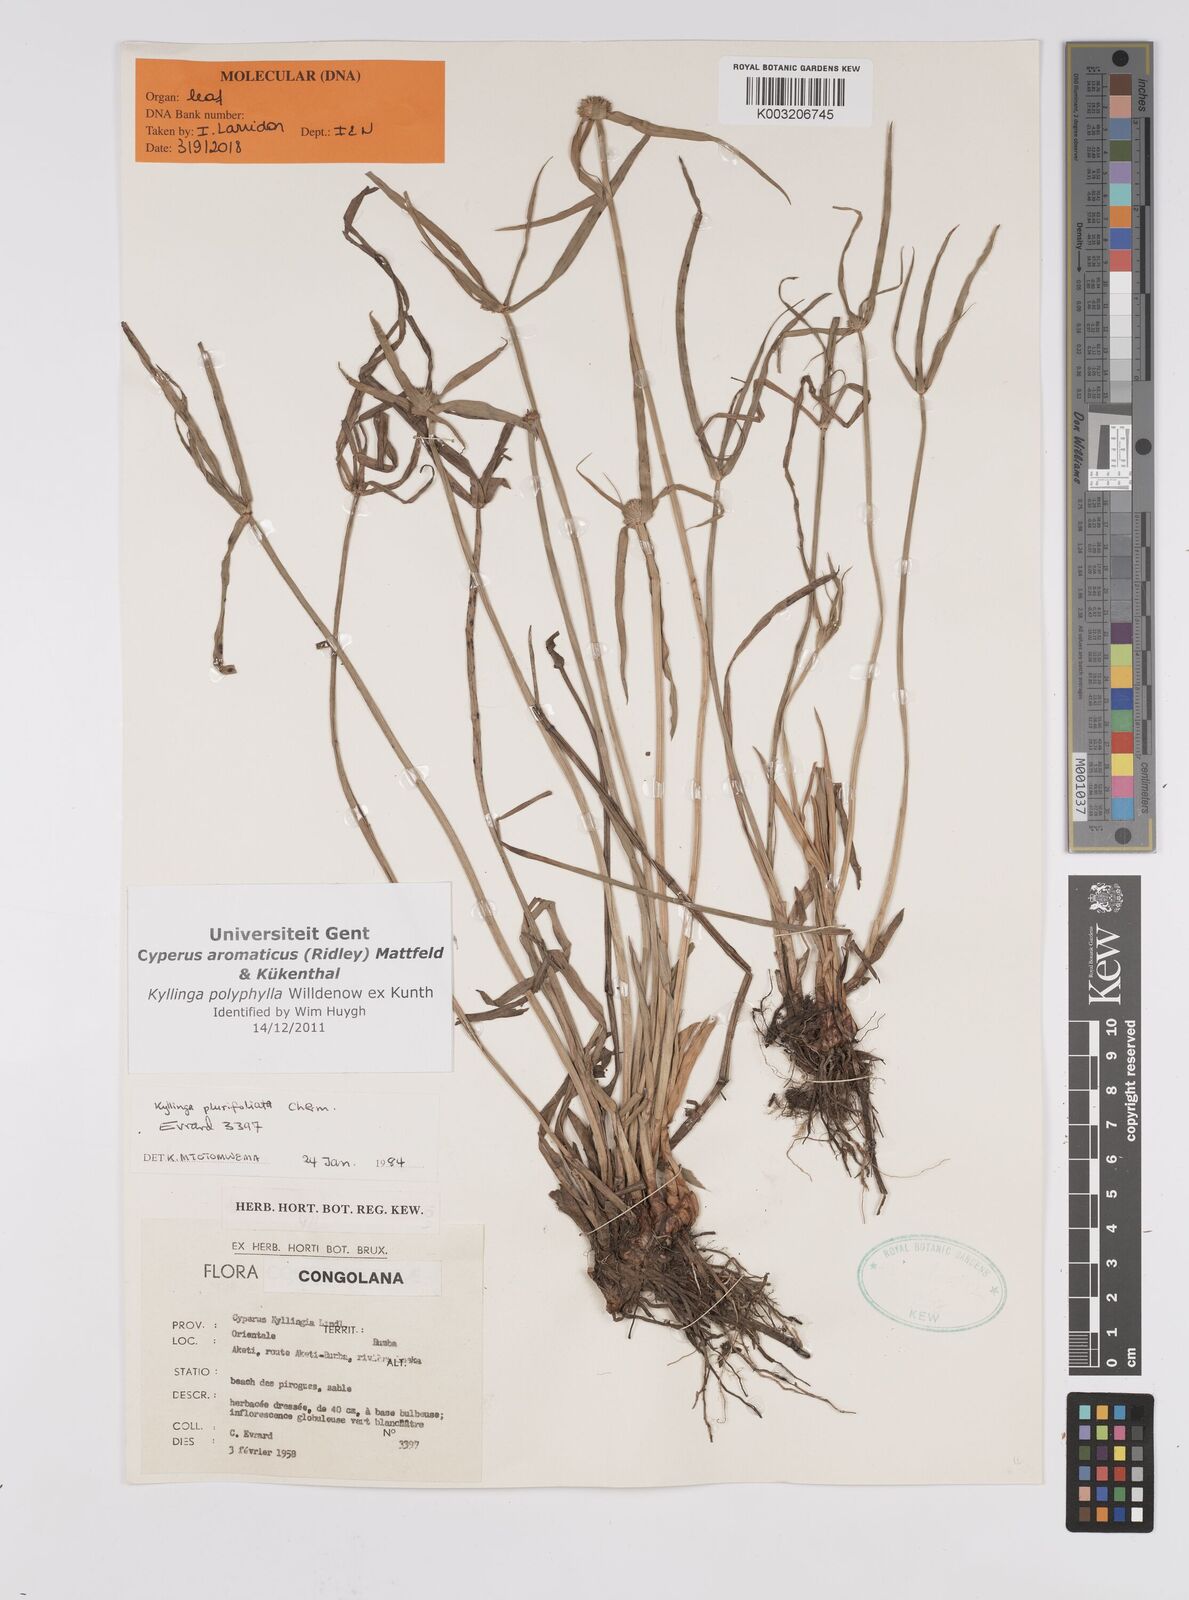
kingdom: Plantae
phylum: Tracheophyta
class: Liliopsida
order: Poales
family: Cyperaceae
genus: Cyperus
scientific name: Cyperus
